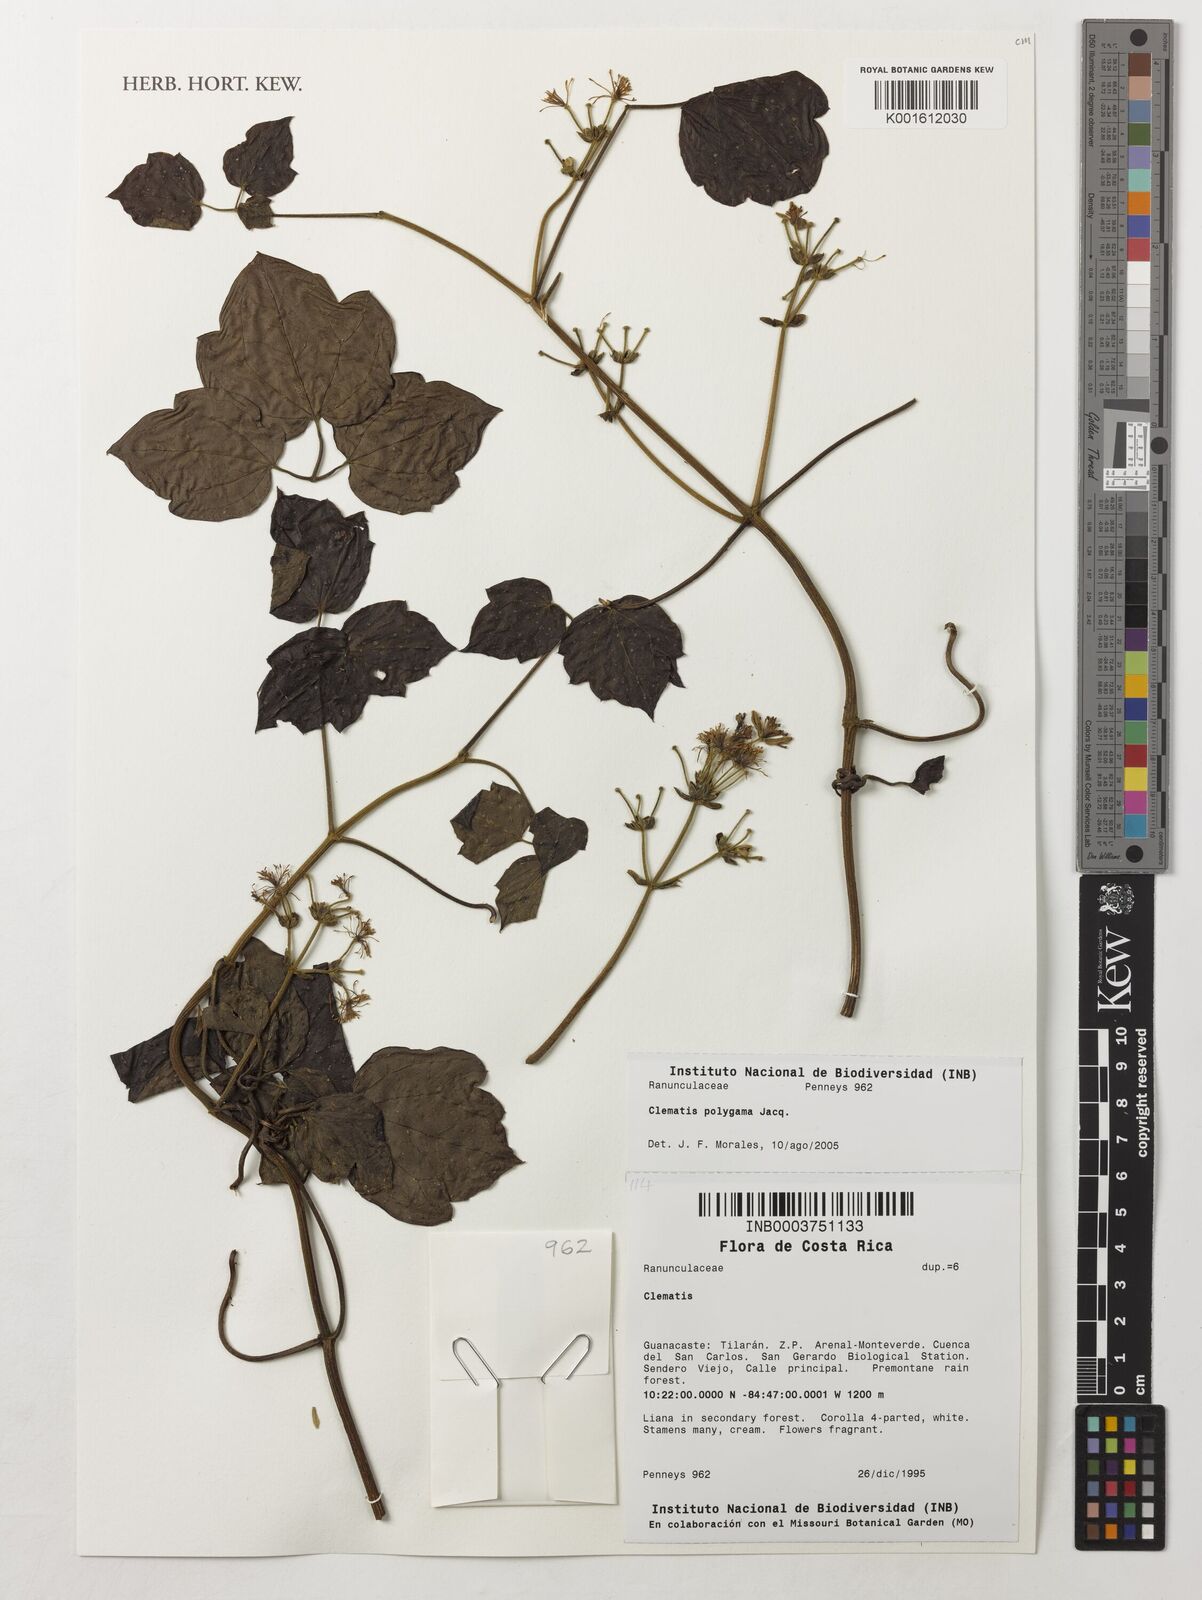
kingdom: Plantae
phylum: Tracheophyta
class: Magnoliopsida
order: Ranunculales
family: Ranunculaceae
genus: Clematis
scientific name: Clematis polygama
